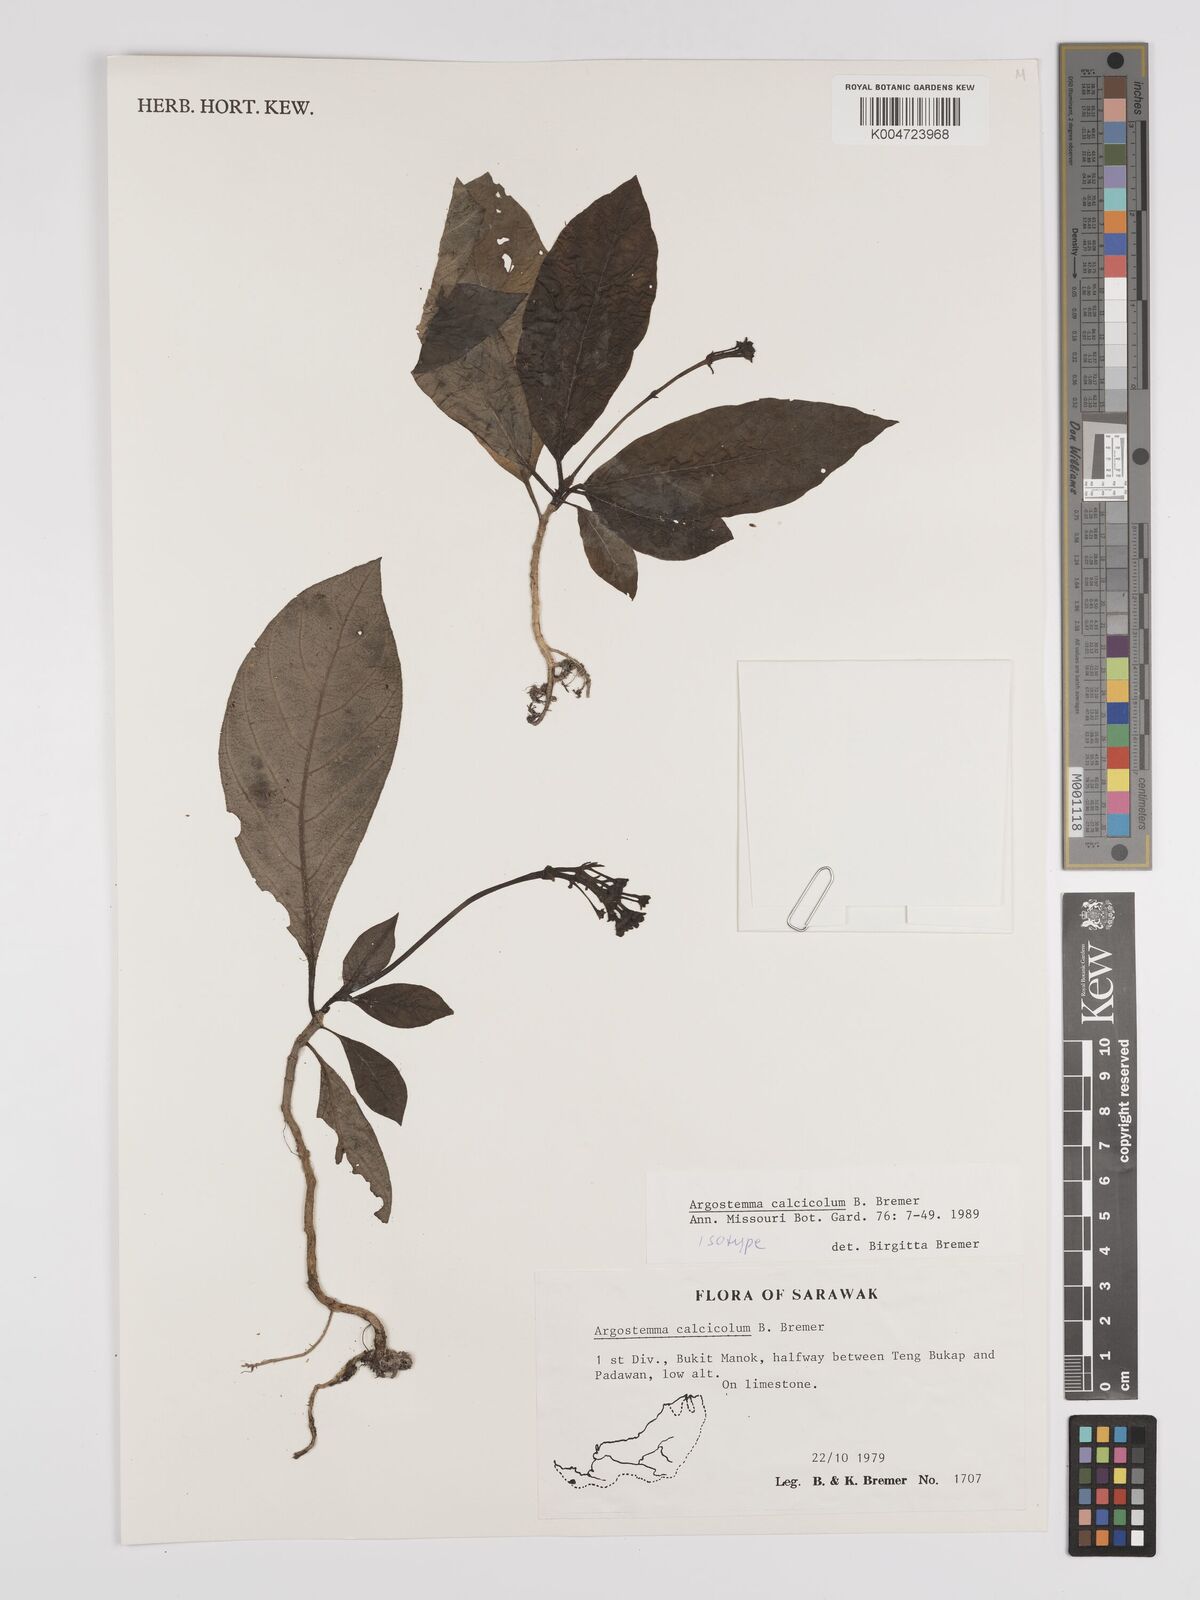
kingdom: Plantae
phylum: Tracheophyta
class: Magnoliopsida
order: Gentianales
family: Rubiaceae
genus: Argostemma
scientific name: Argostemma calcicola
